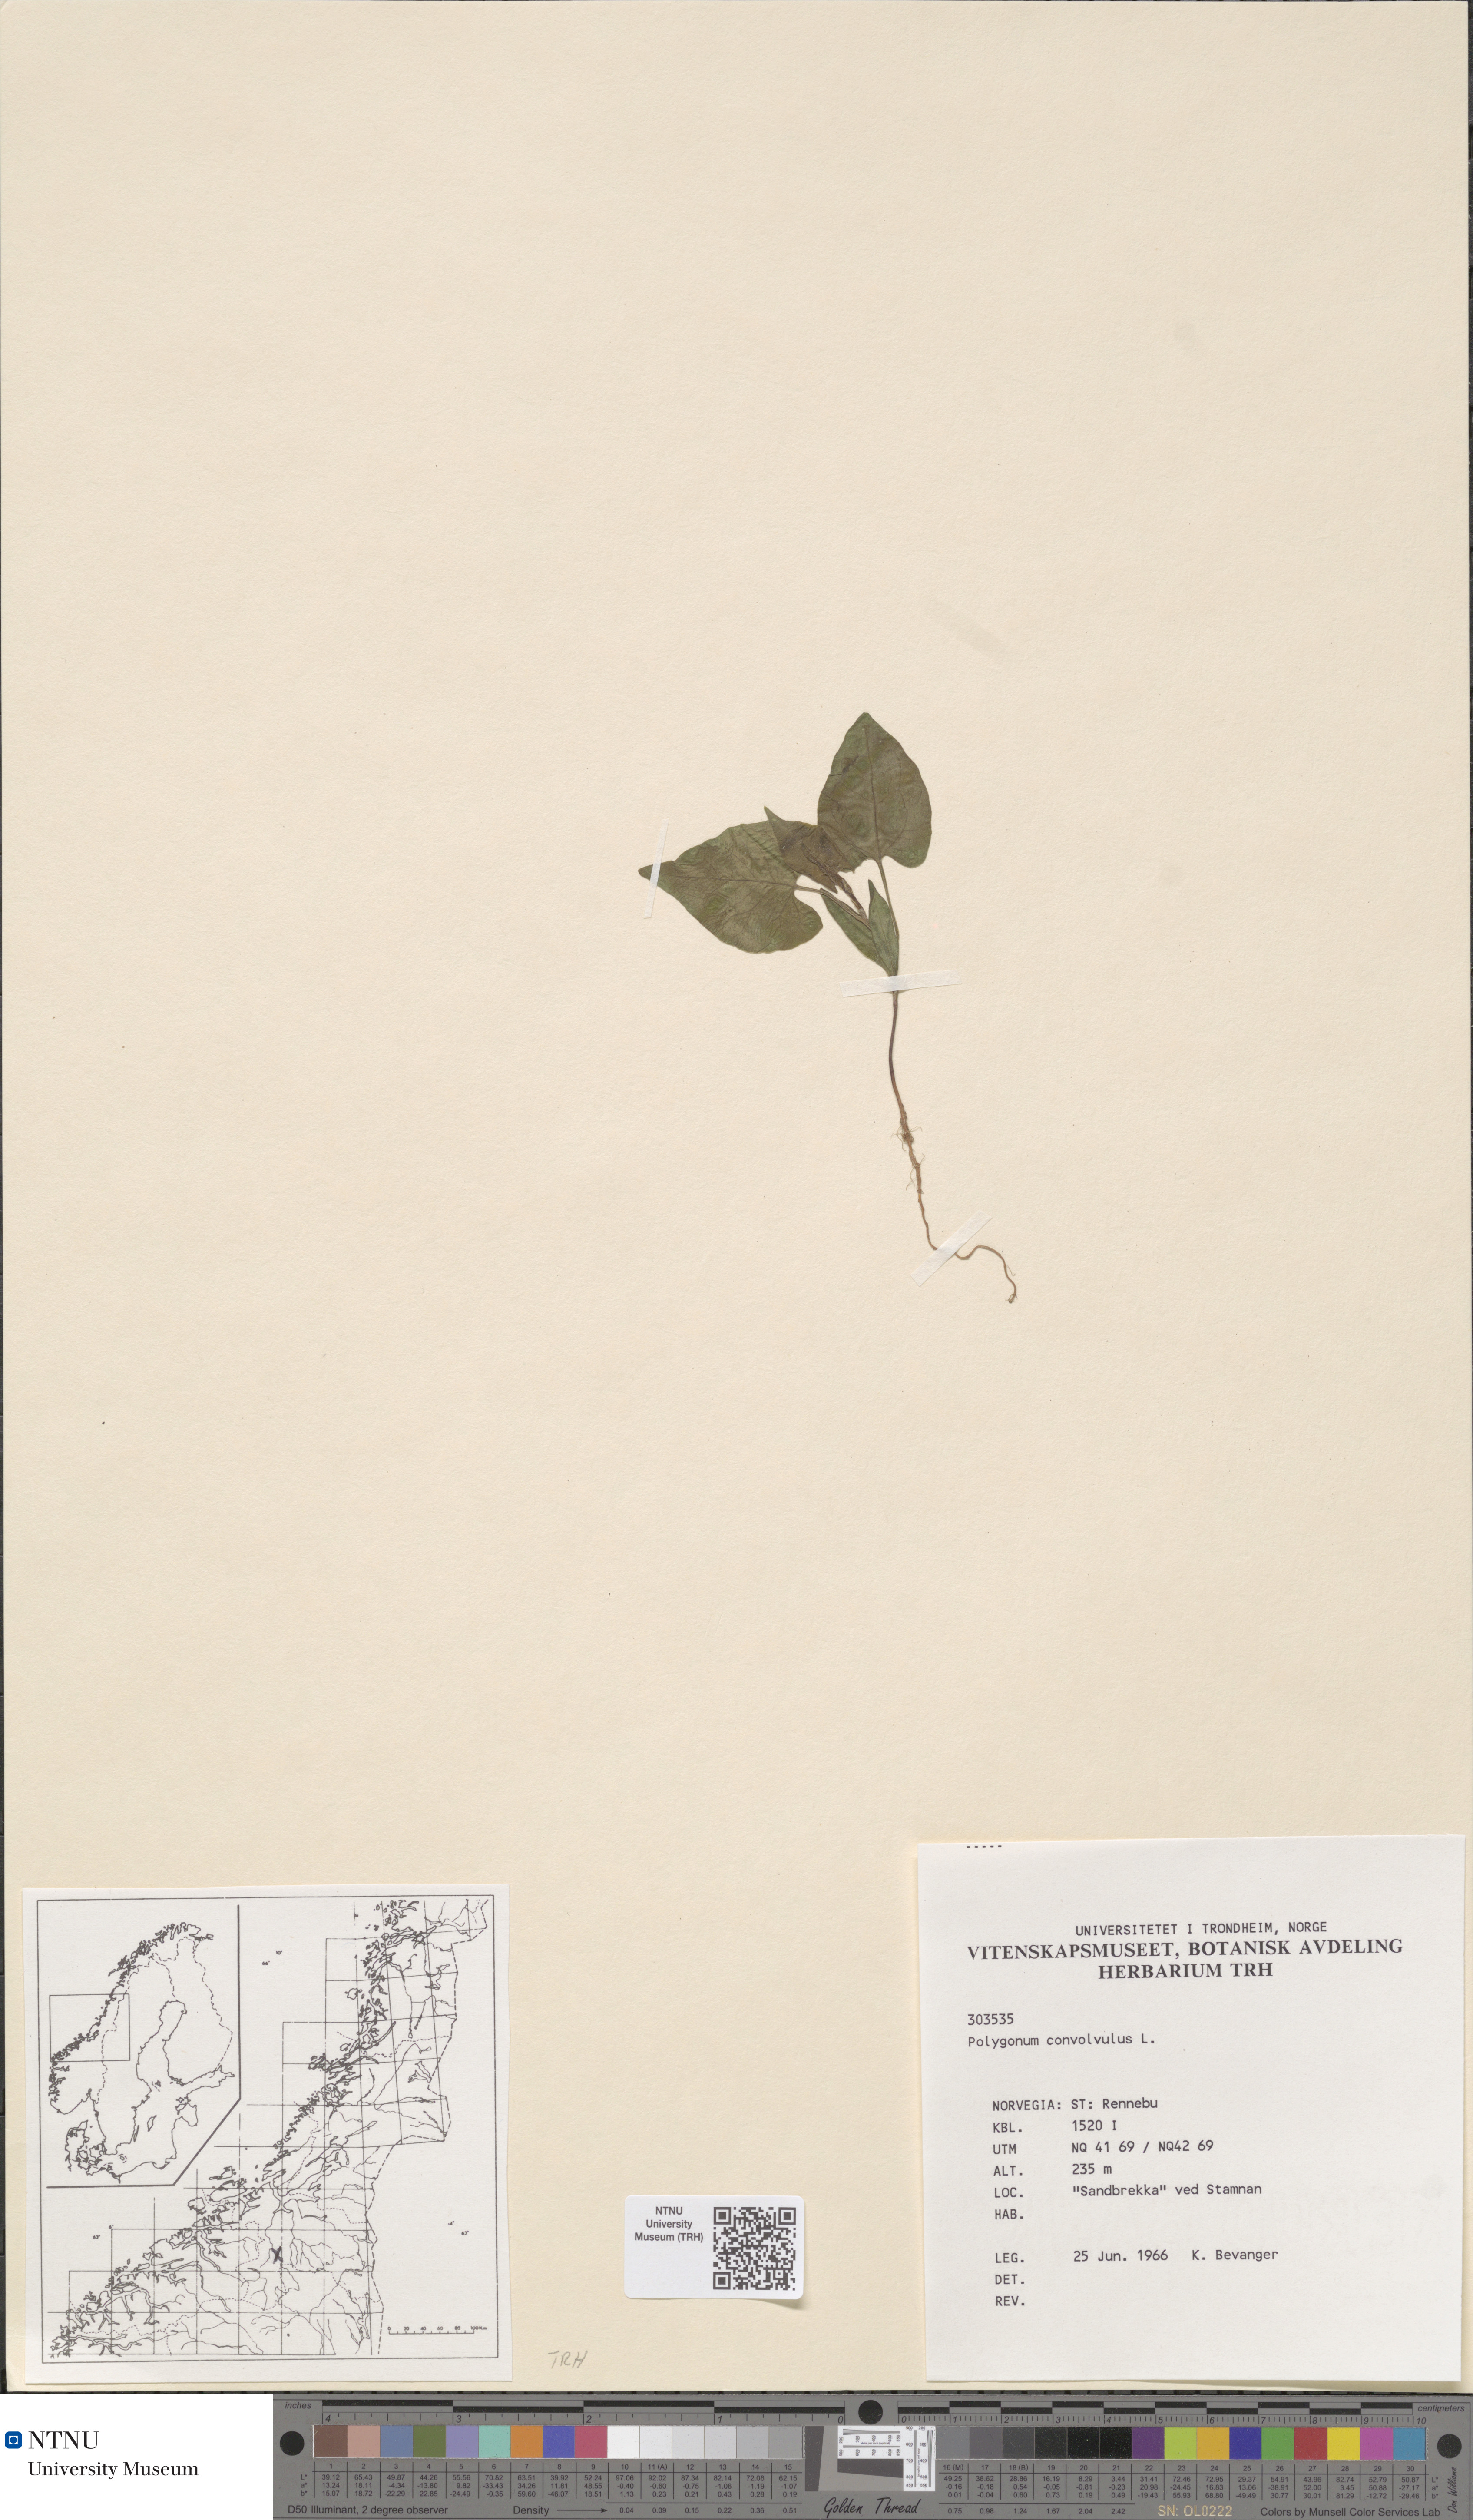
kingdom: Plantae
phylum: Tracheophyta
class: Magnoliopsida
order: Caryophyllales
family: Polygonaceae
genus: Fallopia
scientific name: Fallopia convolvulus
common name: Black bindweed
